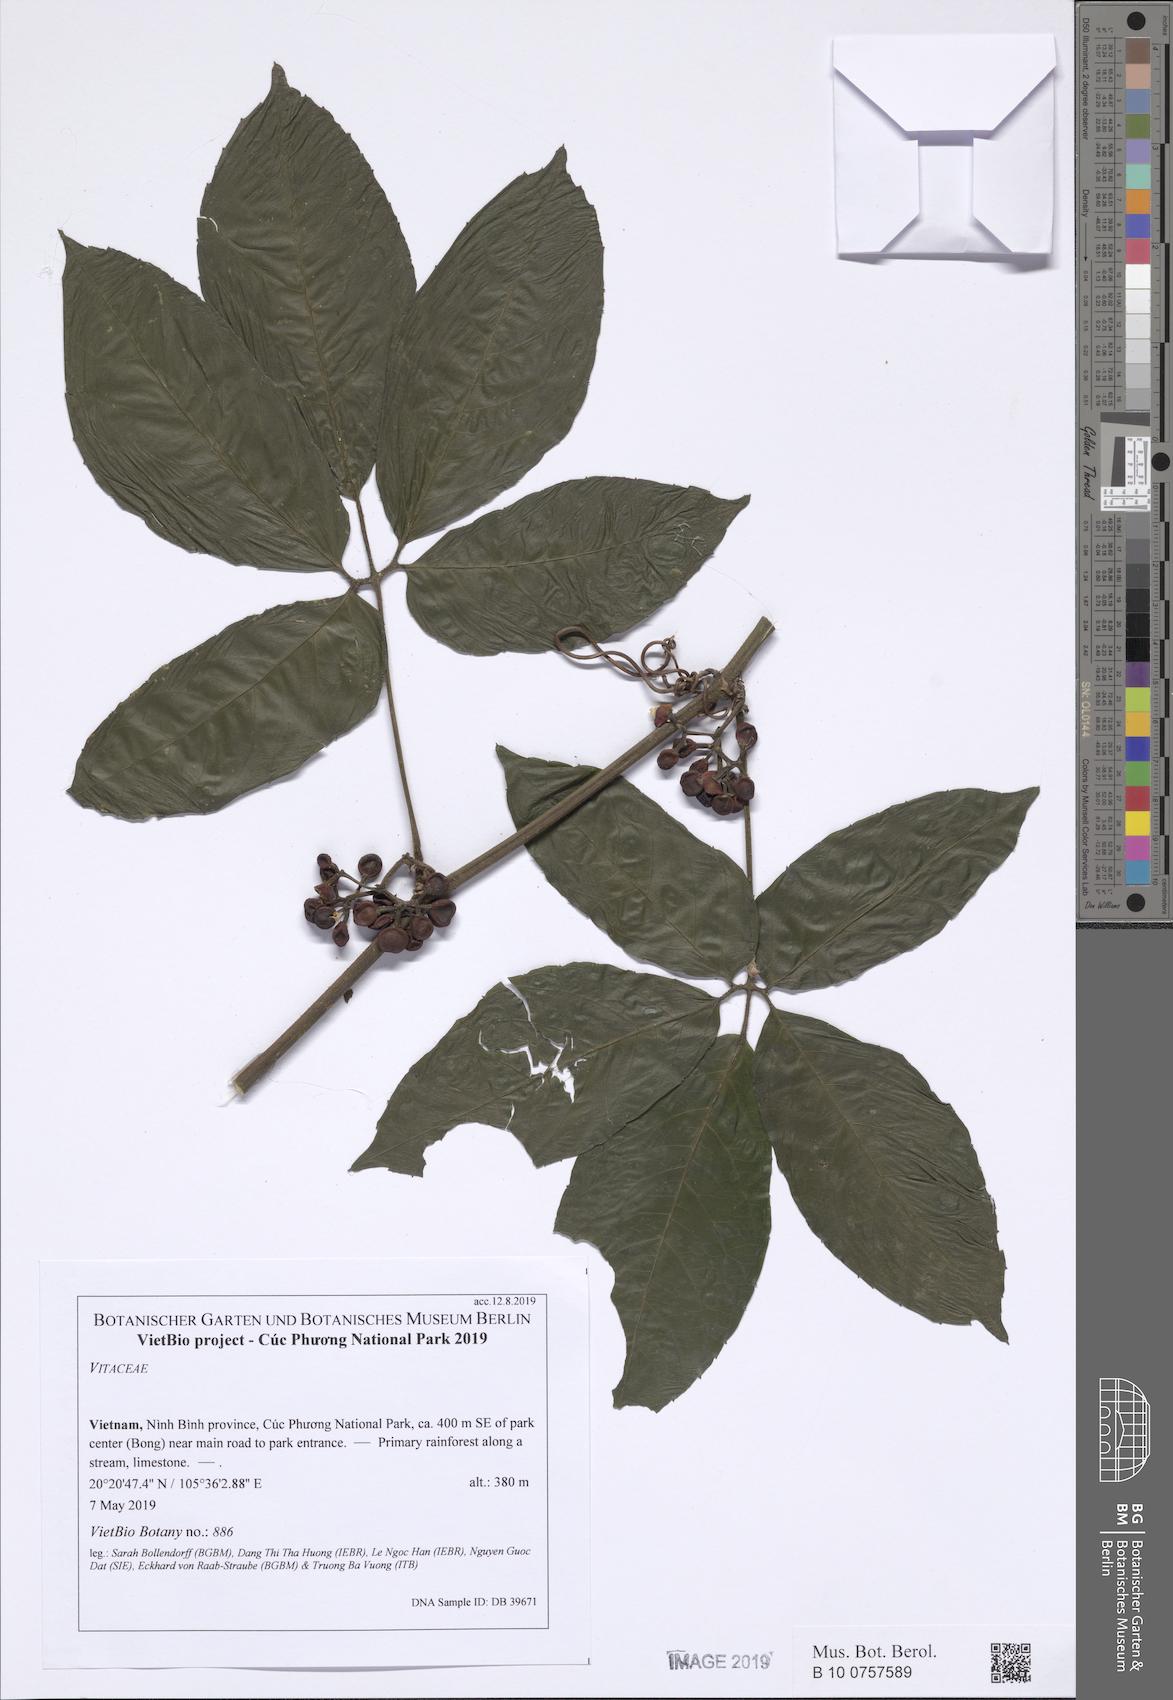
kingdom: Plantae
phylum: Tracheophyta
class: Magnoliopsida
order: Vitales
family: Vitaceae
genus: Tetrastigma
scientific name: Tetrastigma
